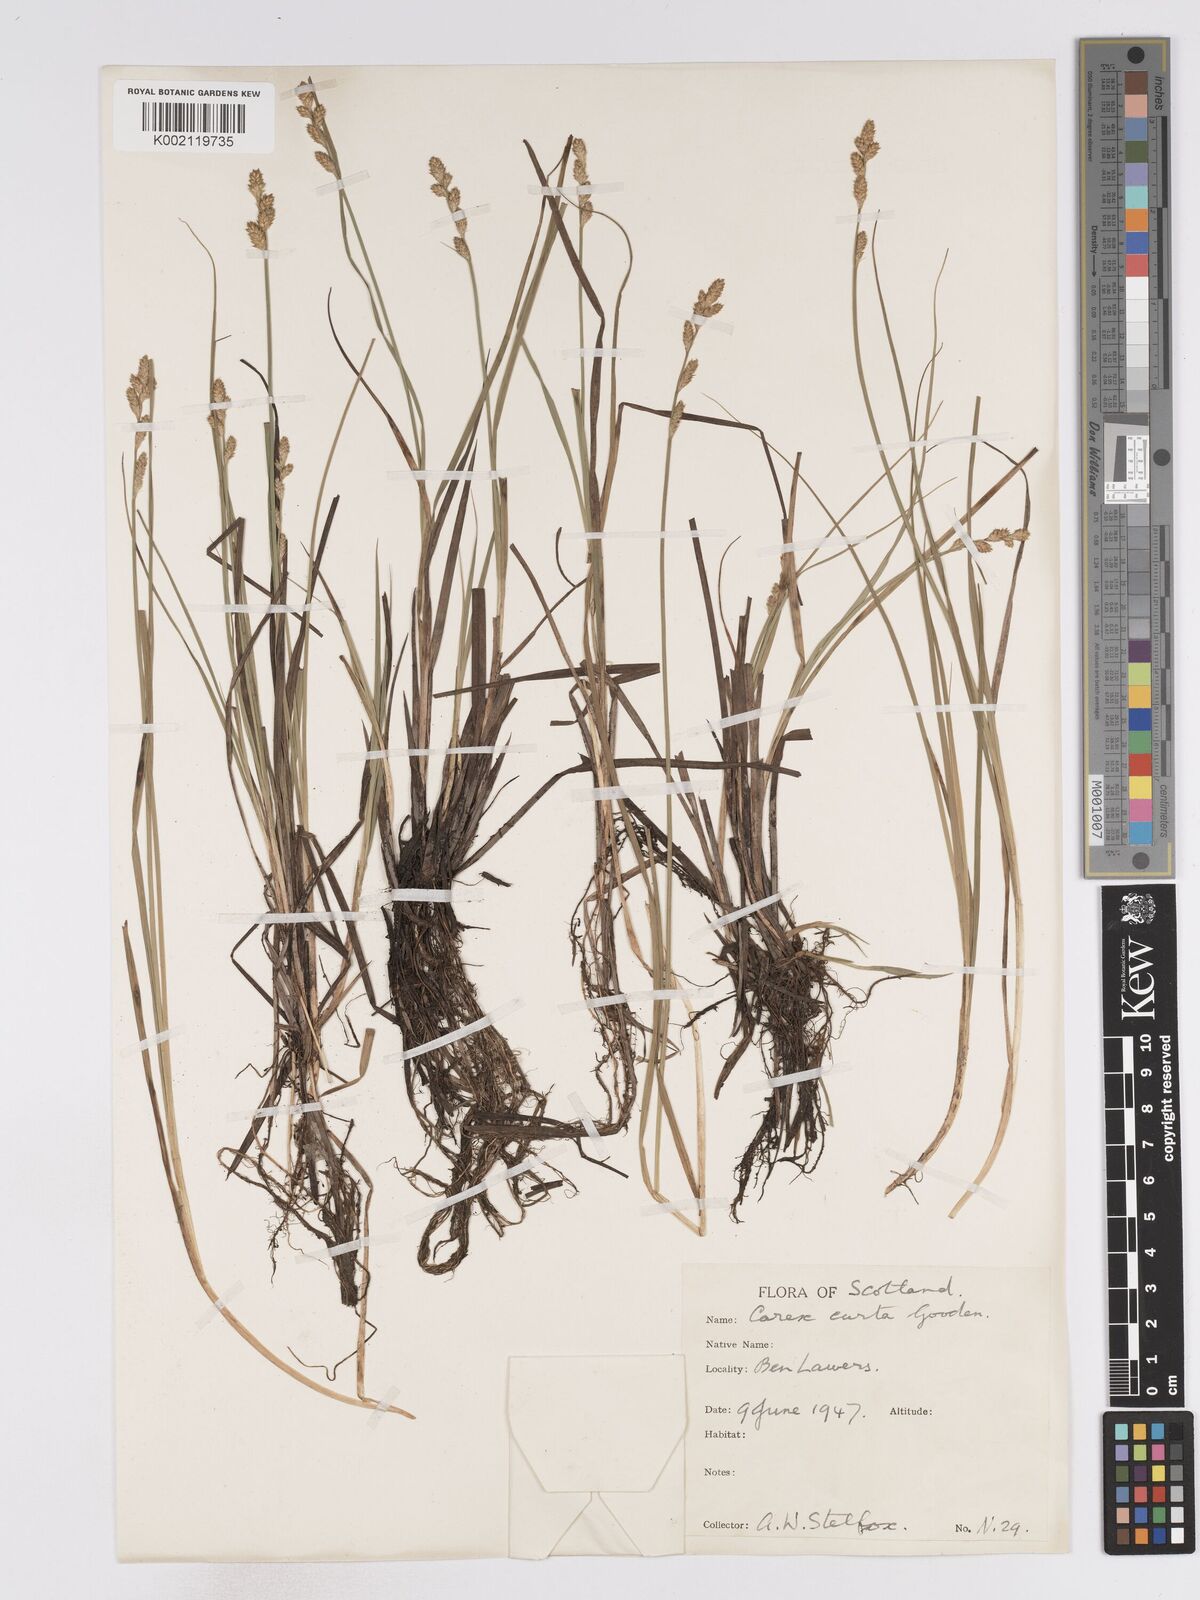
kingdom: Plantae
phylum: Tracheophyta
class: Liliopsida
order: Poales
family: Cyperaceae
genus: Carex
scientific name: Carex curta
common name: White sedge
